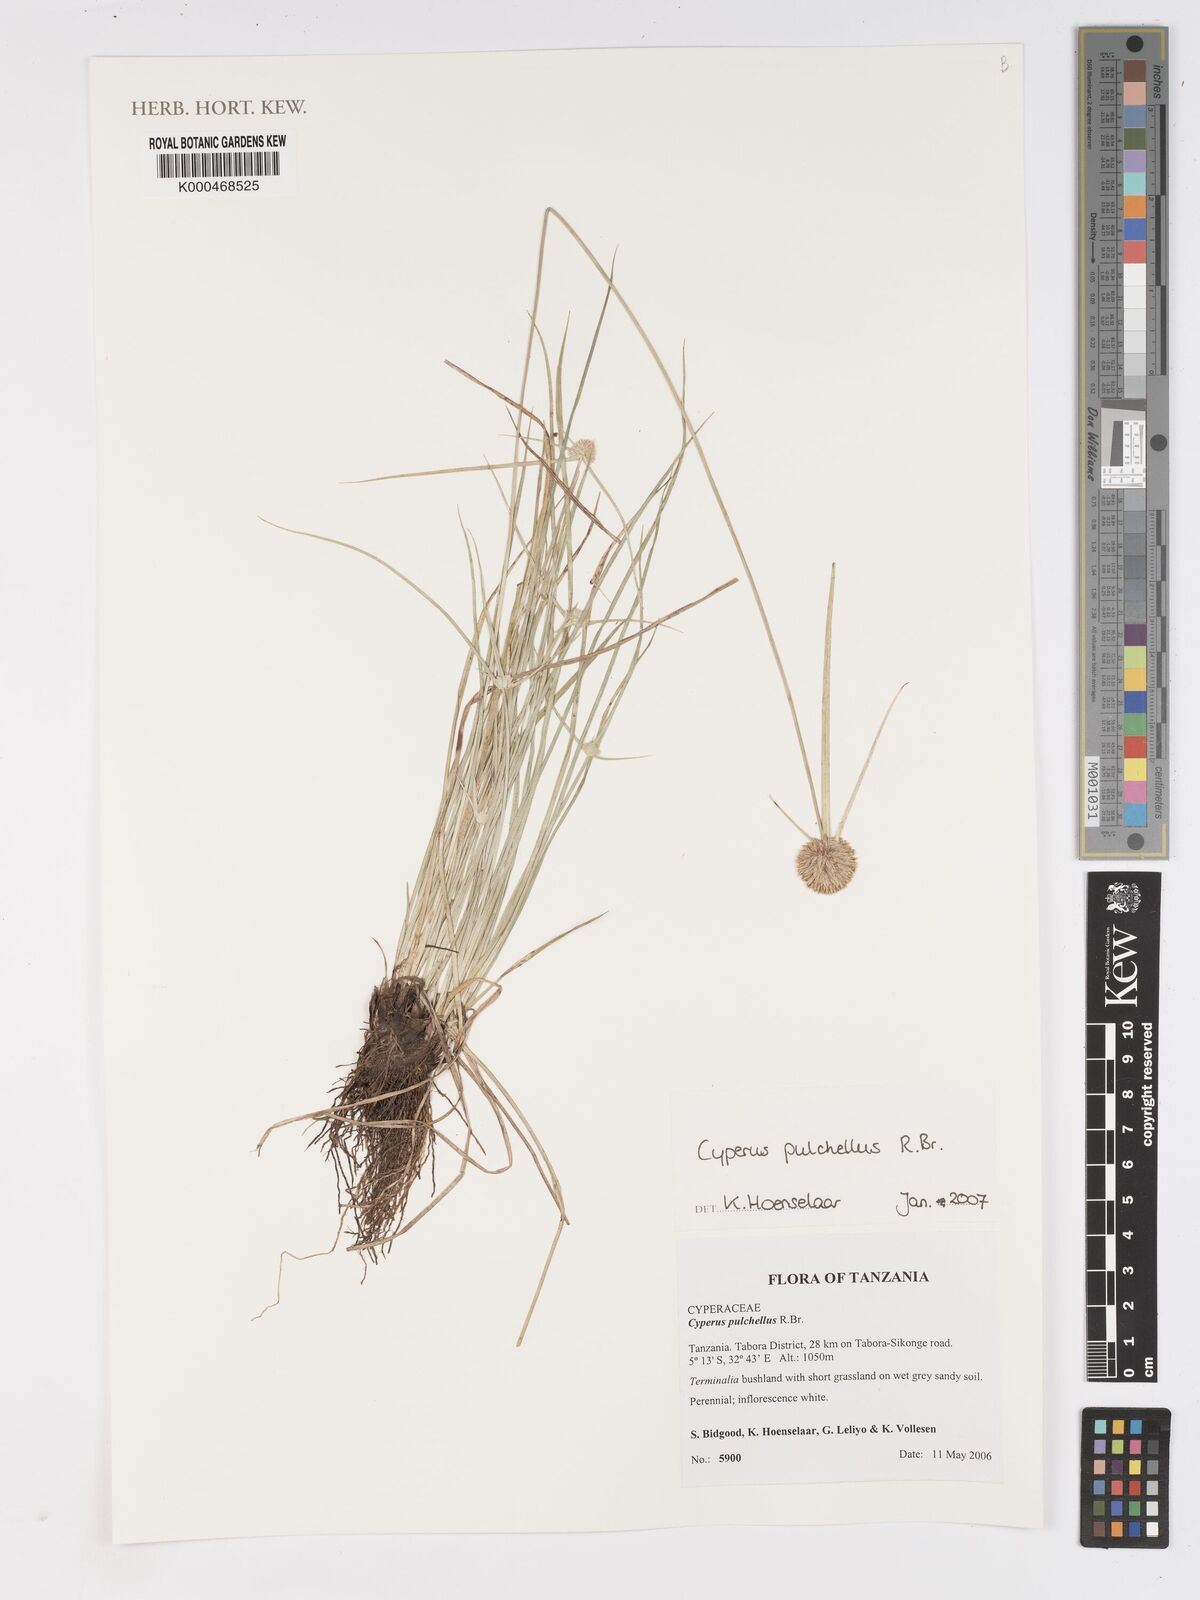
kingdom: Plantae
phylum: Tracheophyta
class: Liliopsida
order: Poales
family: Cyperaceae
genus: Cyperus
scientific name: Cyperus pulchellus
